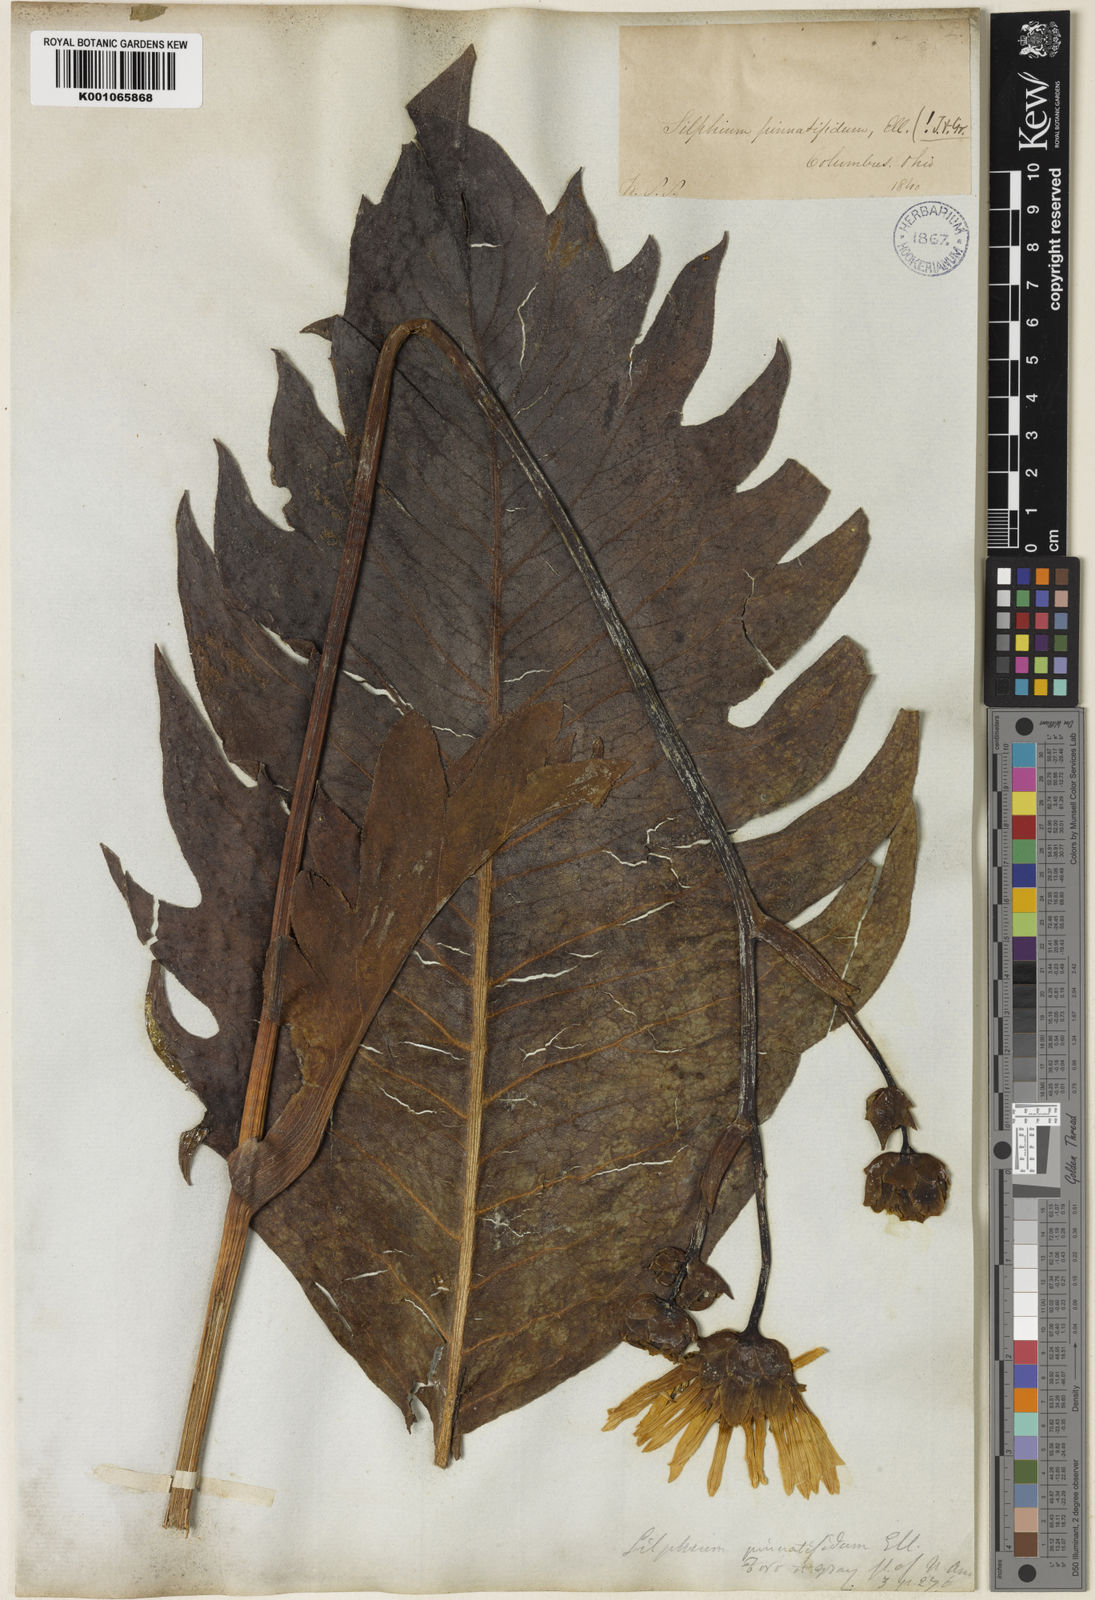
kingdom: Plantae
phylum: Tracheophyta
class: Magnoliopsida
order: Asterales
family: Asteraceae
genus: Silphium
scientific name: Silphium terebinthinaceum
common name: Basal-leaf rosinweed
